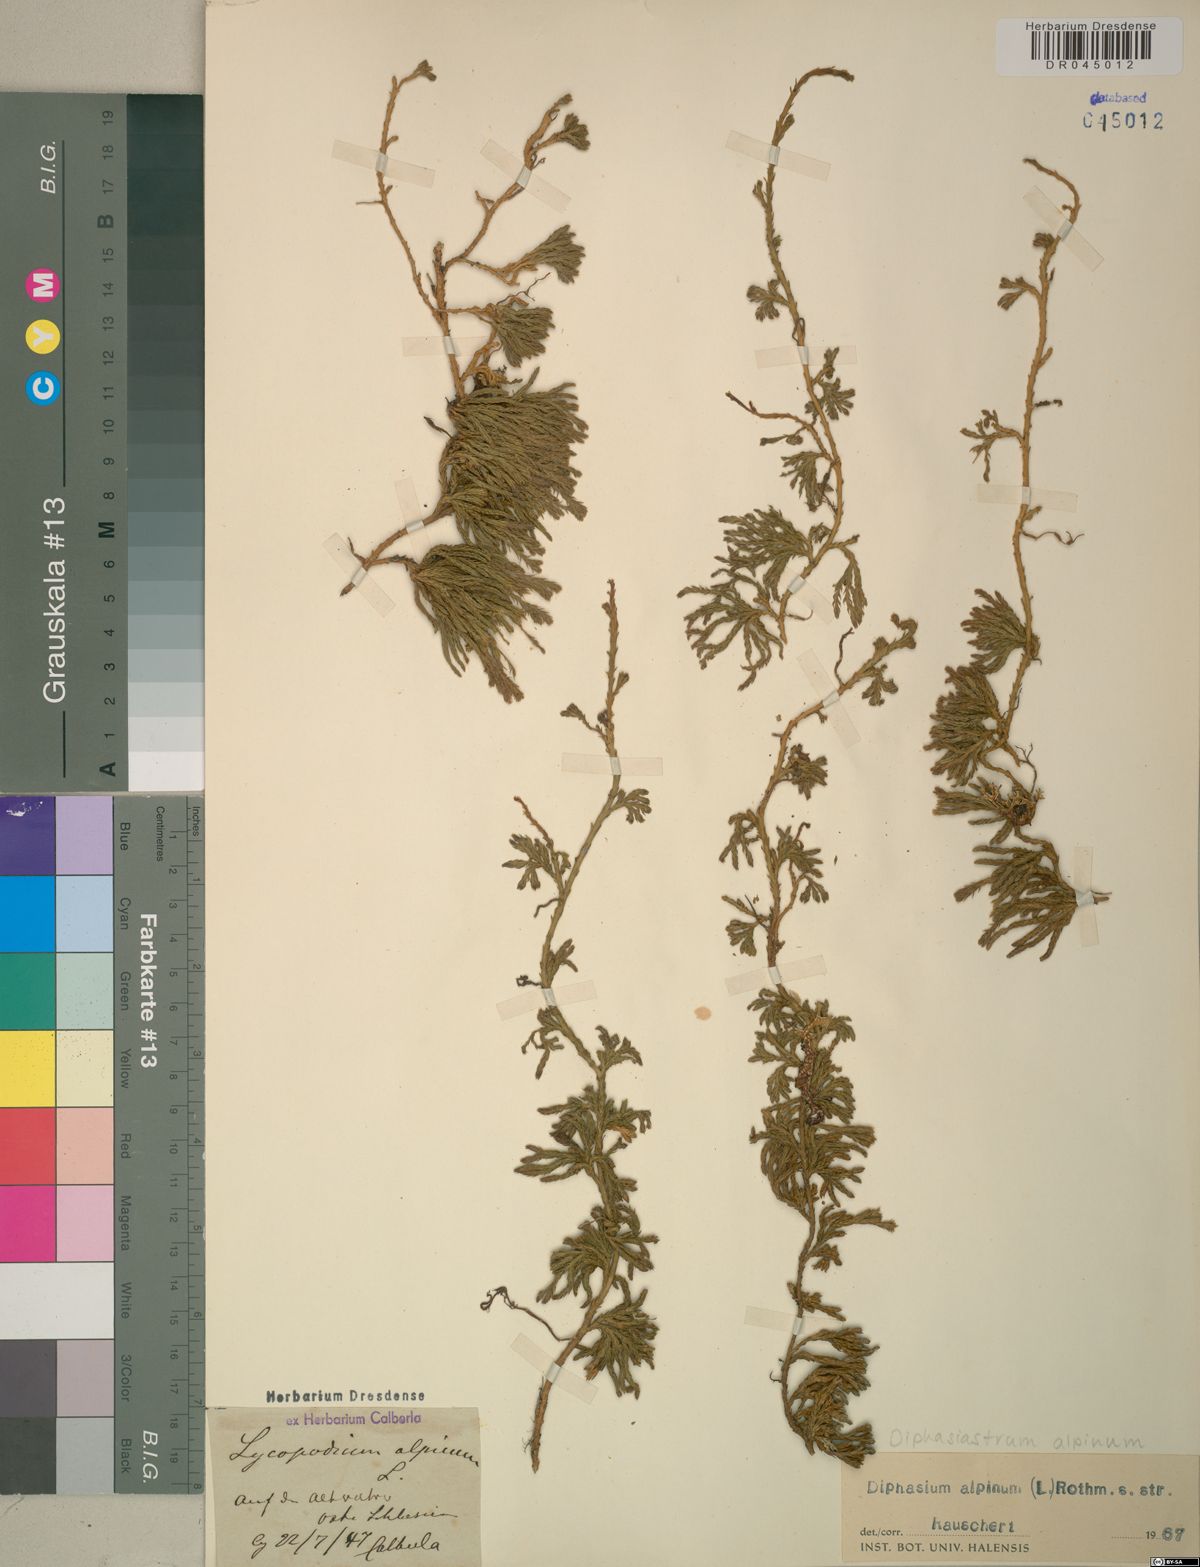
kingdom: Plantae
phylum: Tracheophyta
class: Lycopodiopsida
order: Lycopodiales
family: Lycopodiaceae
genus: Diphasiastrum
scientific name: Diphasiastrum alpinum
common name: Alpine clubmoss
